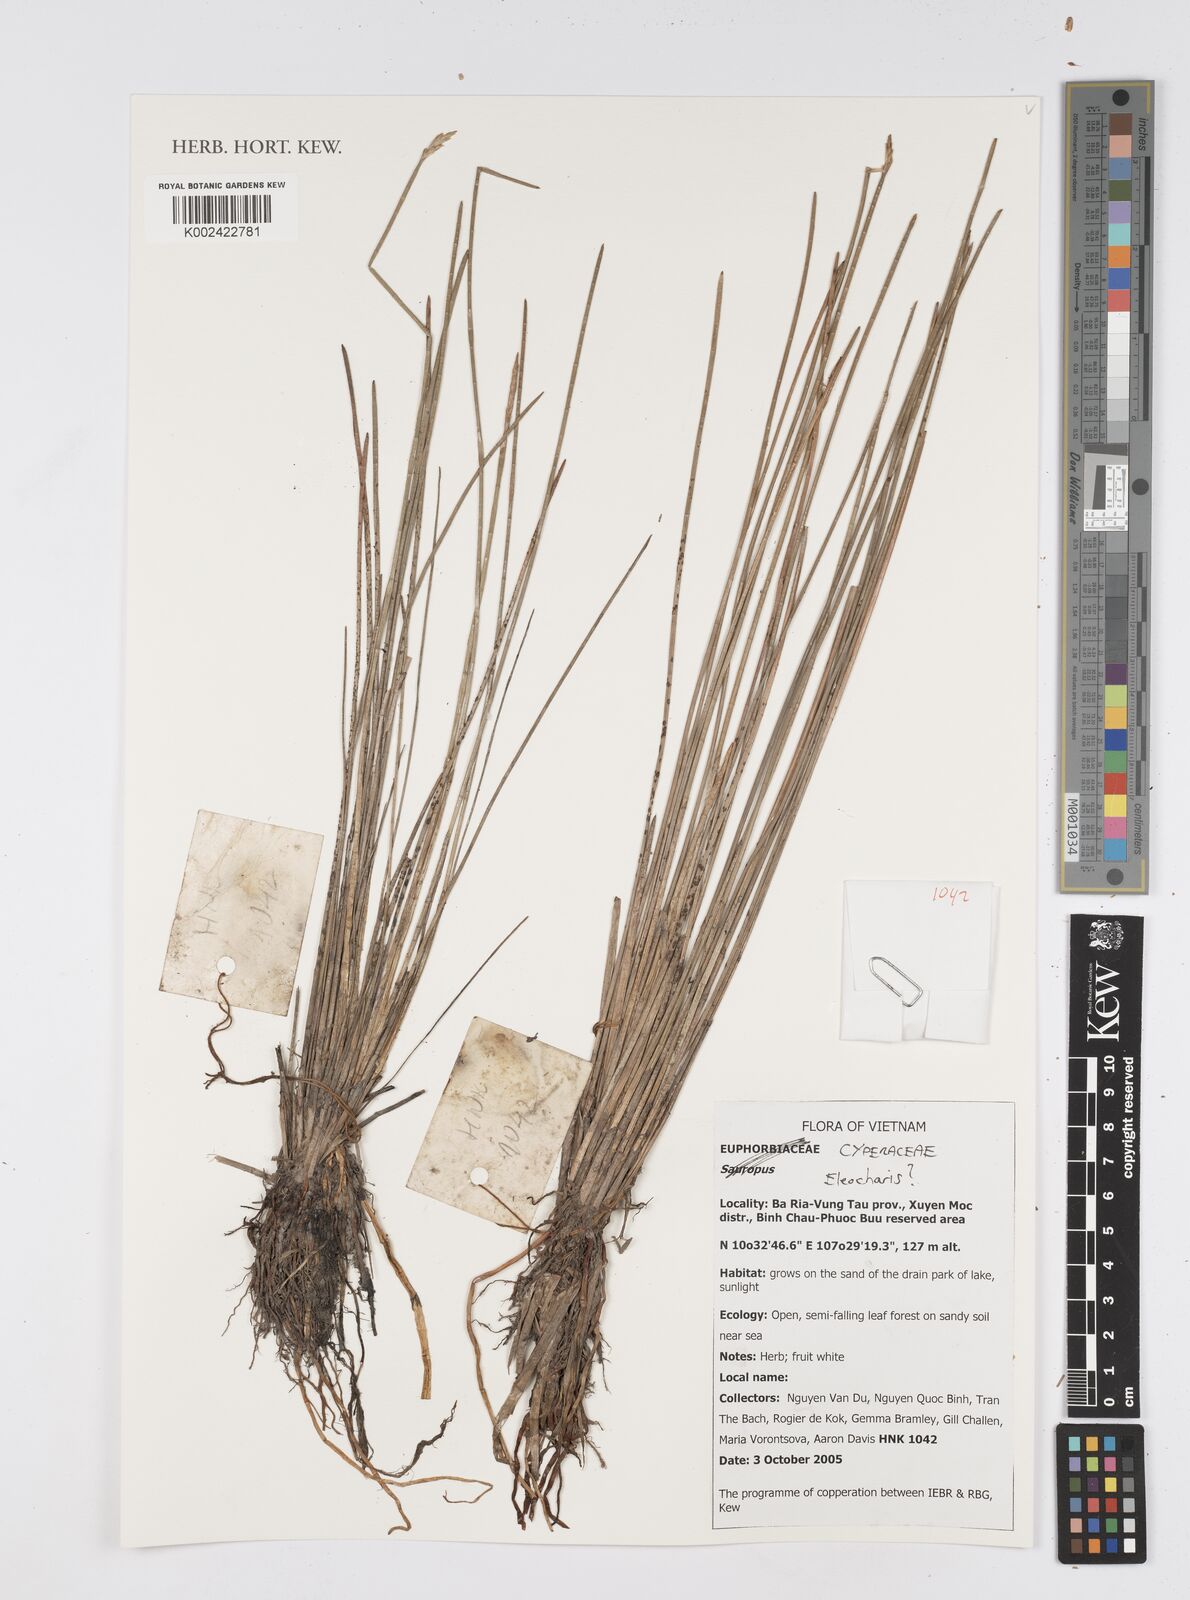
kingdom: Plantae
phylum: Tracheophyta
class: Liliopsida
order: Poales
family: Cyperaceae
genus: Eleocharis
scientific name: Eleocharis dulcis
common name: Chinese water chestnut
